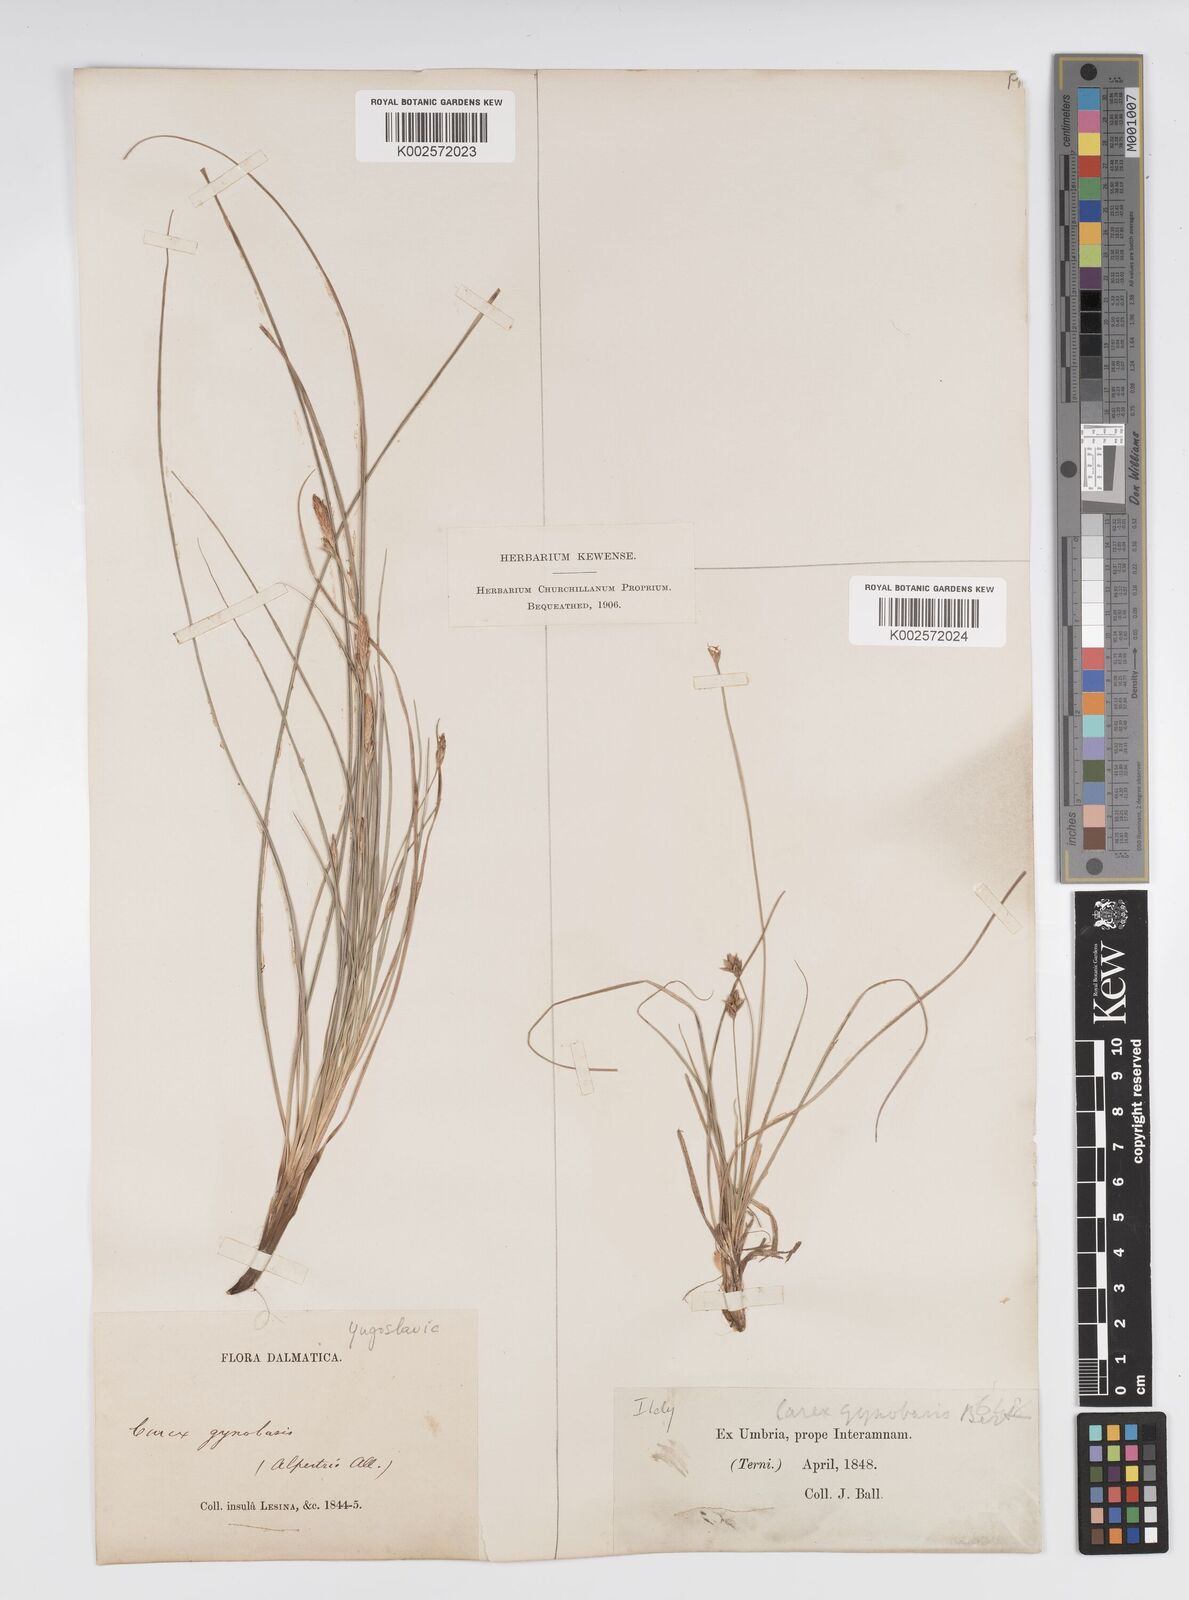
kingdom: Plantae
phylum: Tracheophyta
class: Liliopsida
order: Poales
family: Cyperaceae
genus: Carex
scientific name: Carex halleriana
